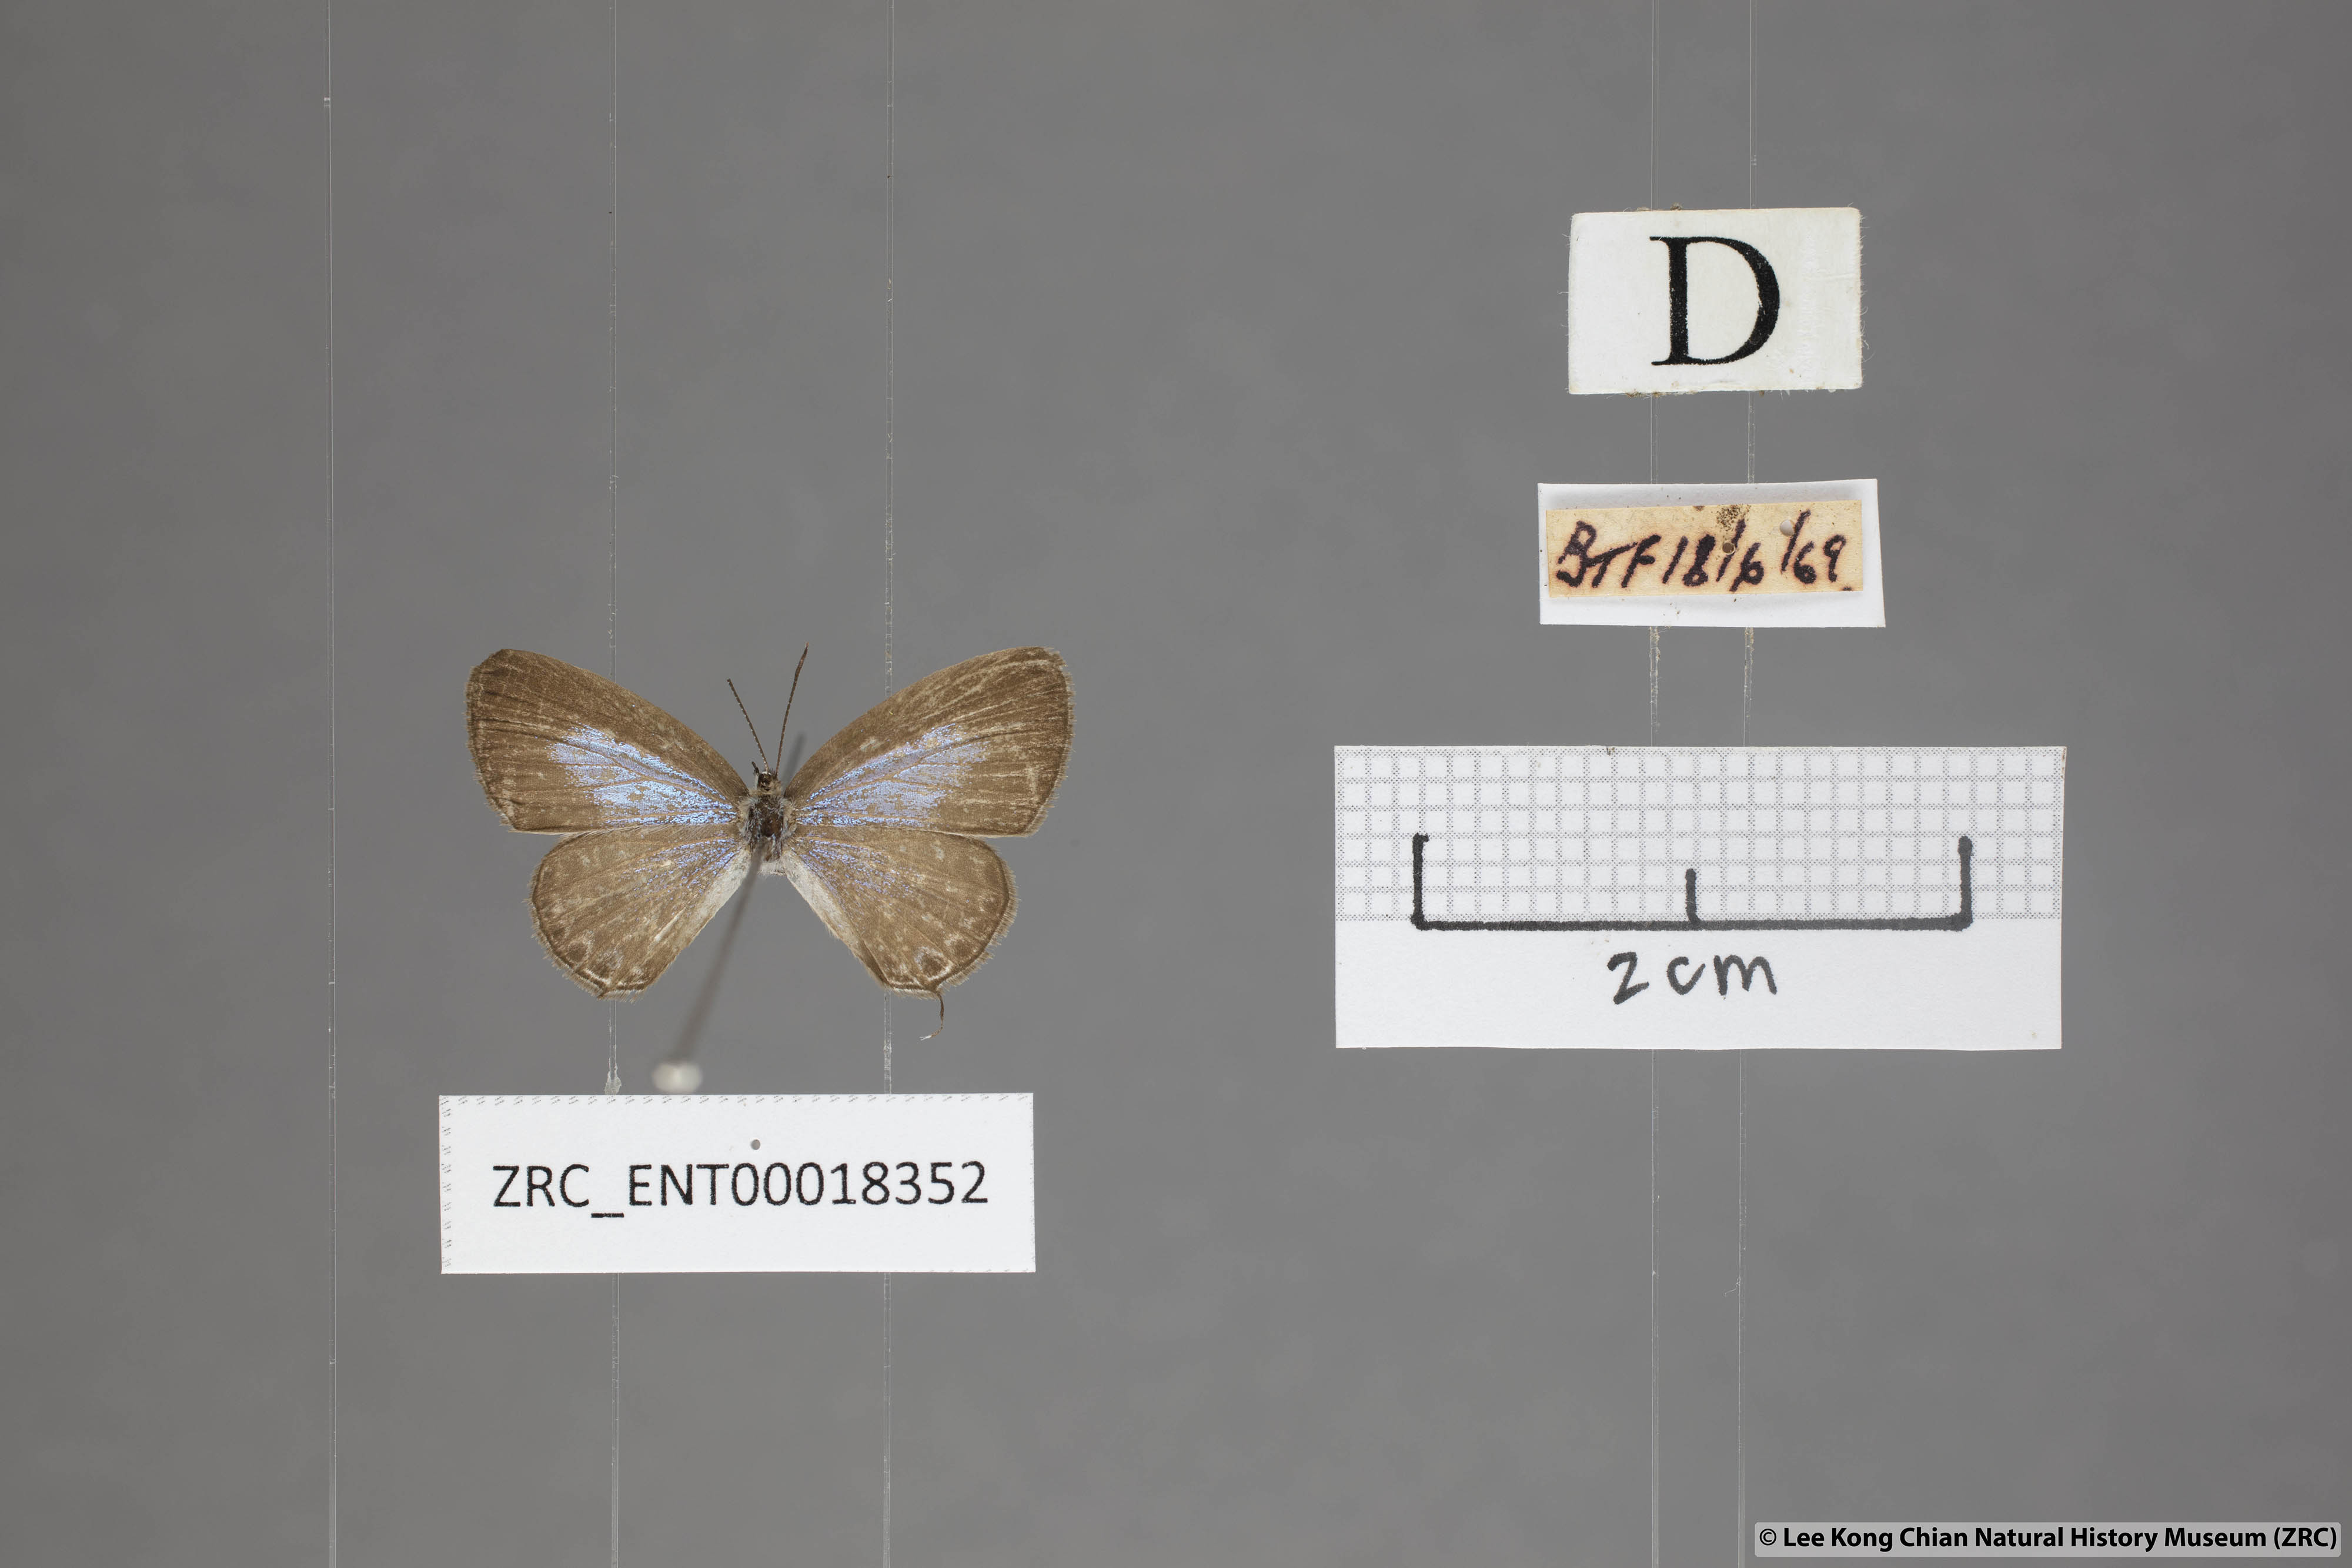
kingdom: Animalia
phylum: Arthropoda
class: Insecta
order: Lepidoptera
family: Lycaenidae
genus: Nacaduba
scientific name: Nacaduba hermus
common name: Pale four-line blue
